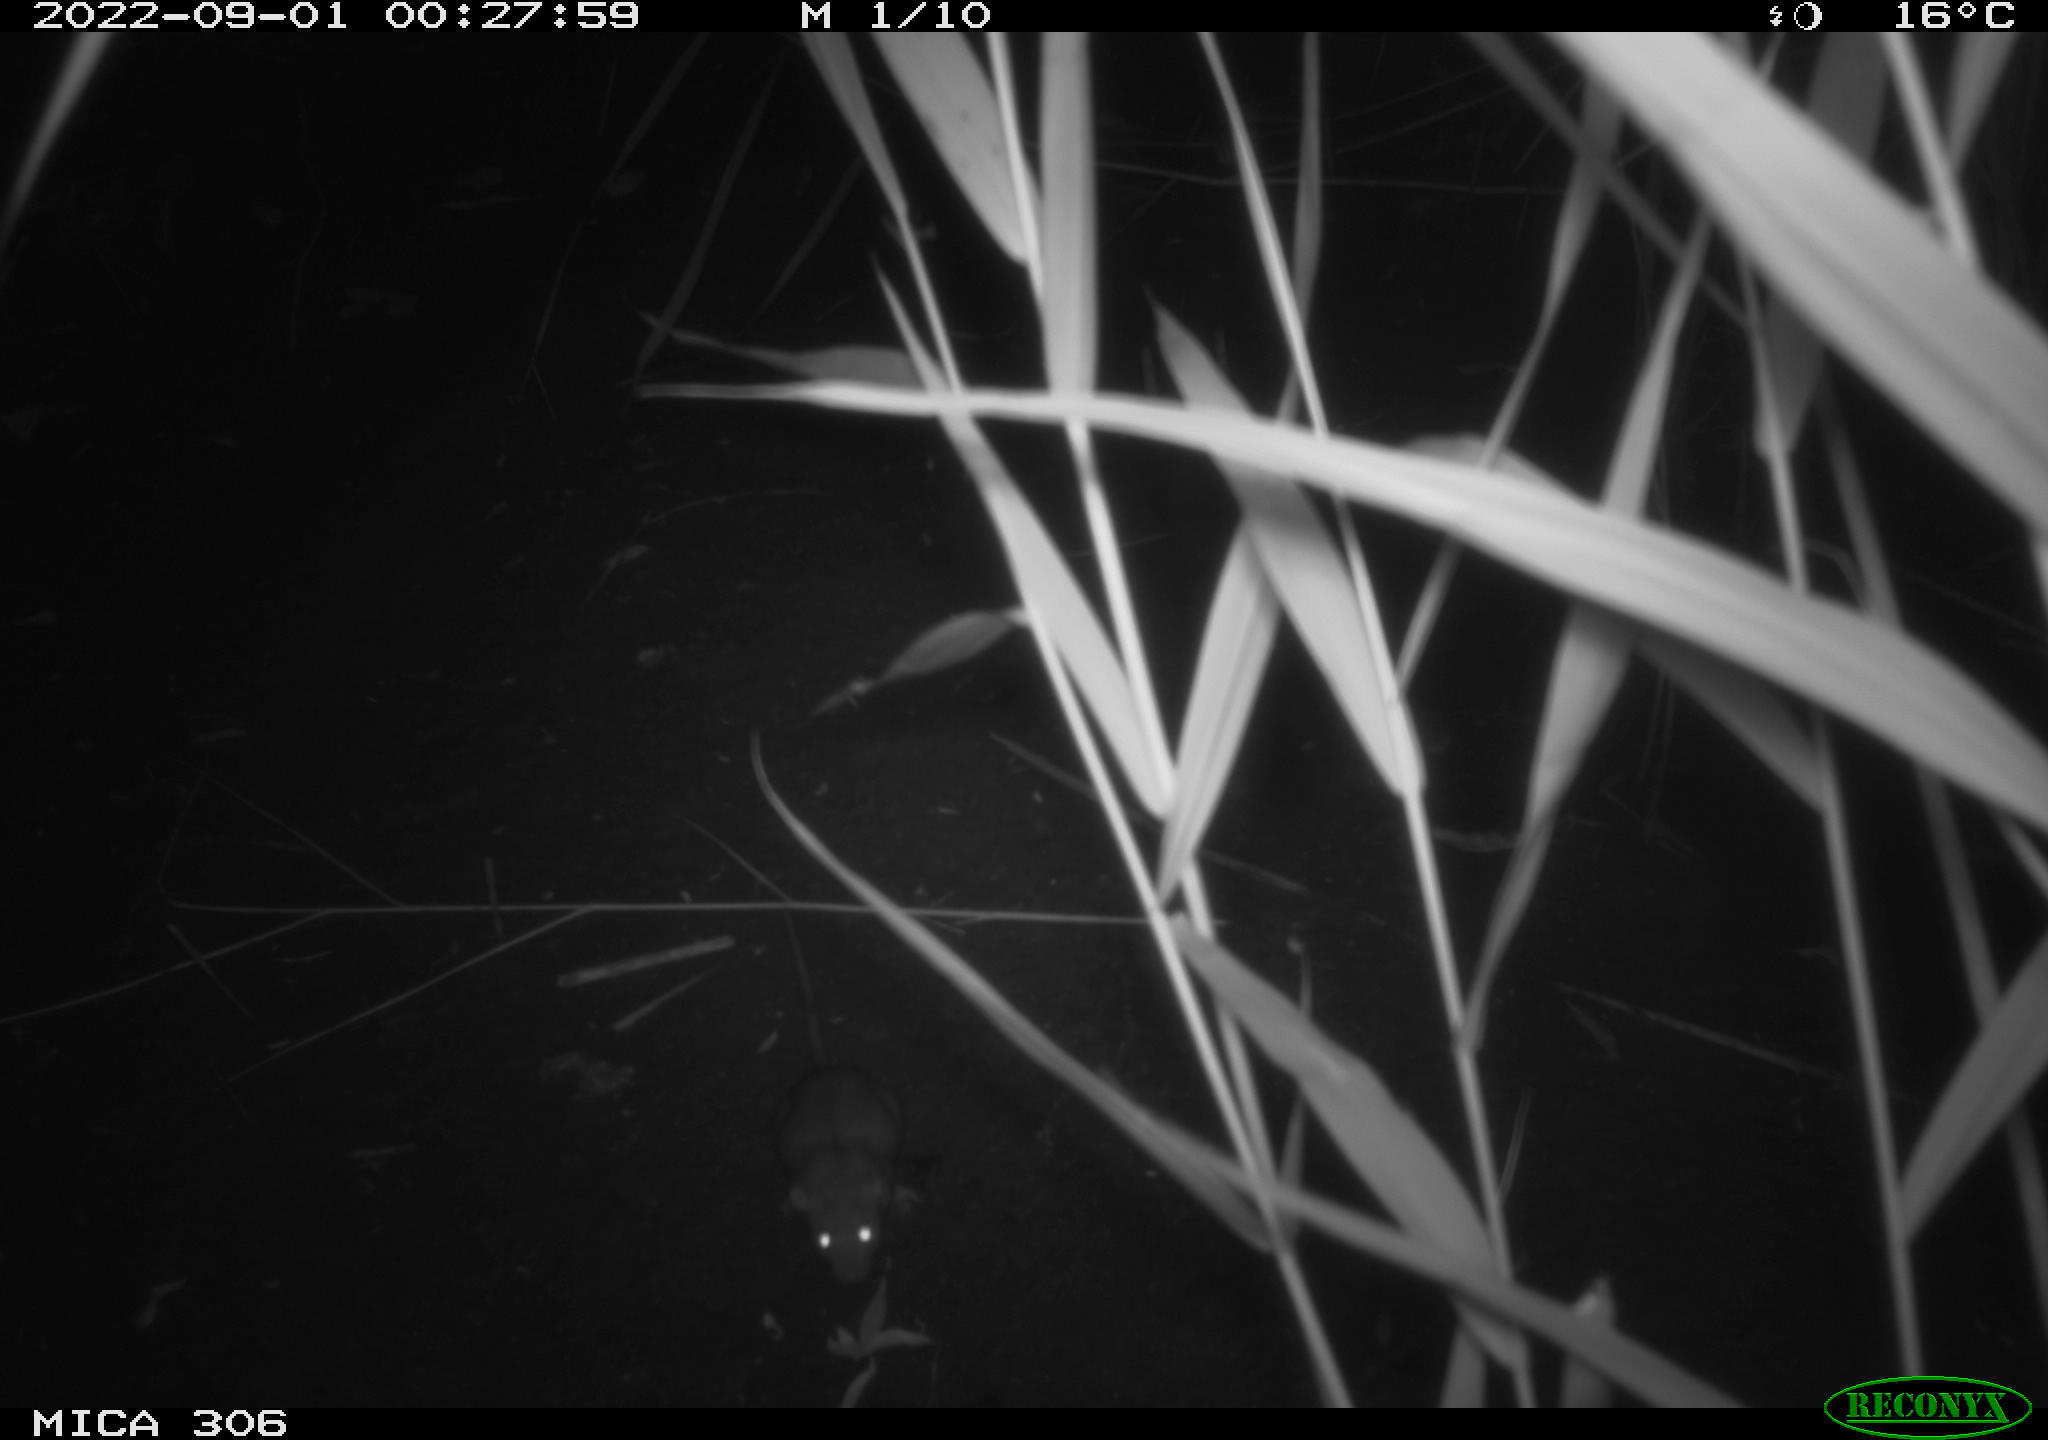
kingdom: Animalia
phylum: Chordata
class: Mammalia
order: Rodentia
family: Muridae
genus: Rattus
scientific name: Rattus norvegicus
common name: Brown rat
